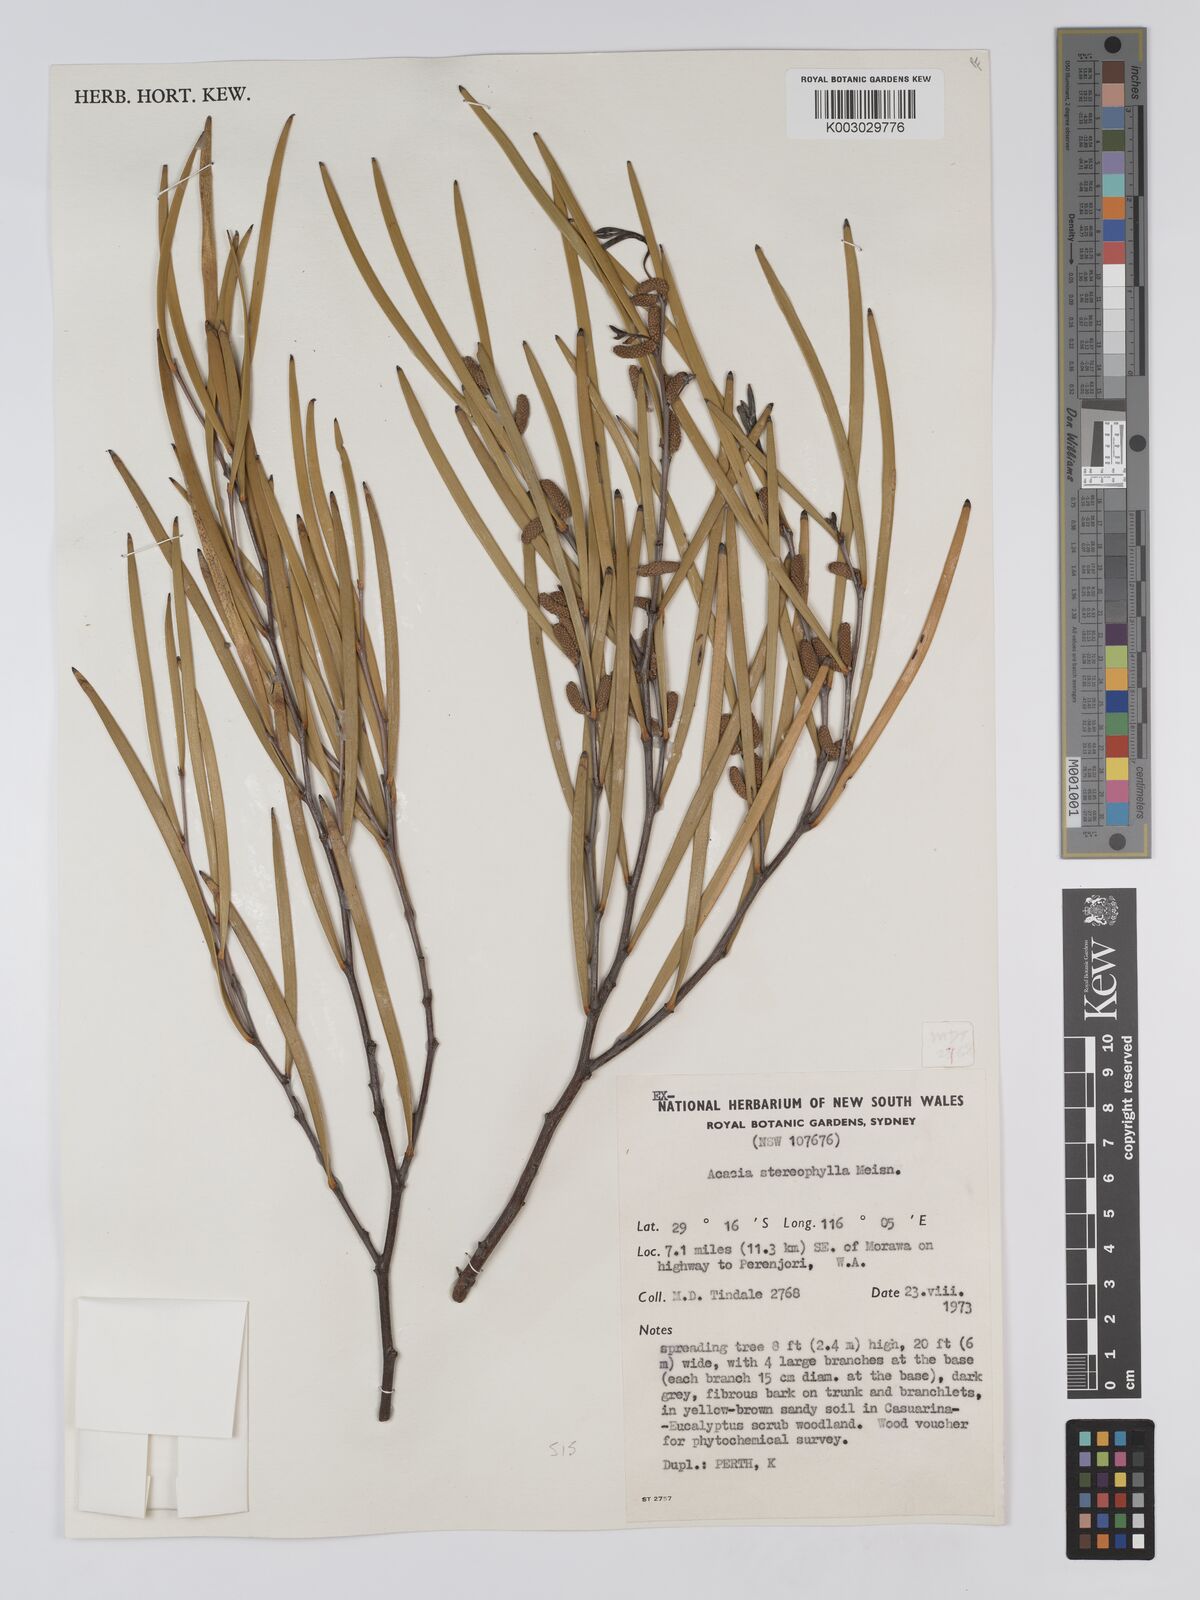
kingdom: Plantae
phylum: Tracheophyta
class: Magnoliopsida
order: Fabales
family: Fabaceae
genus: Acacia
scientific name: Acacia stereophylla
